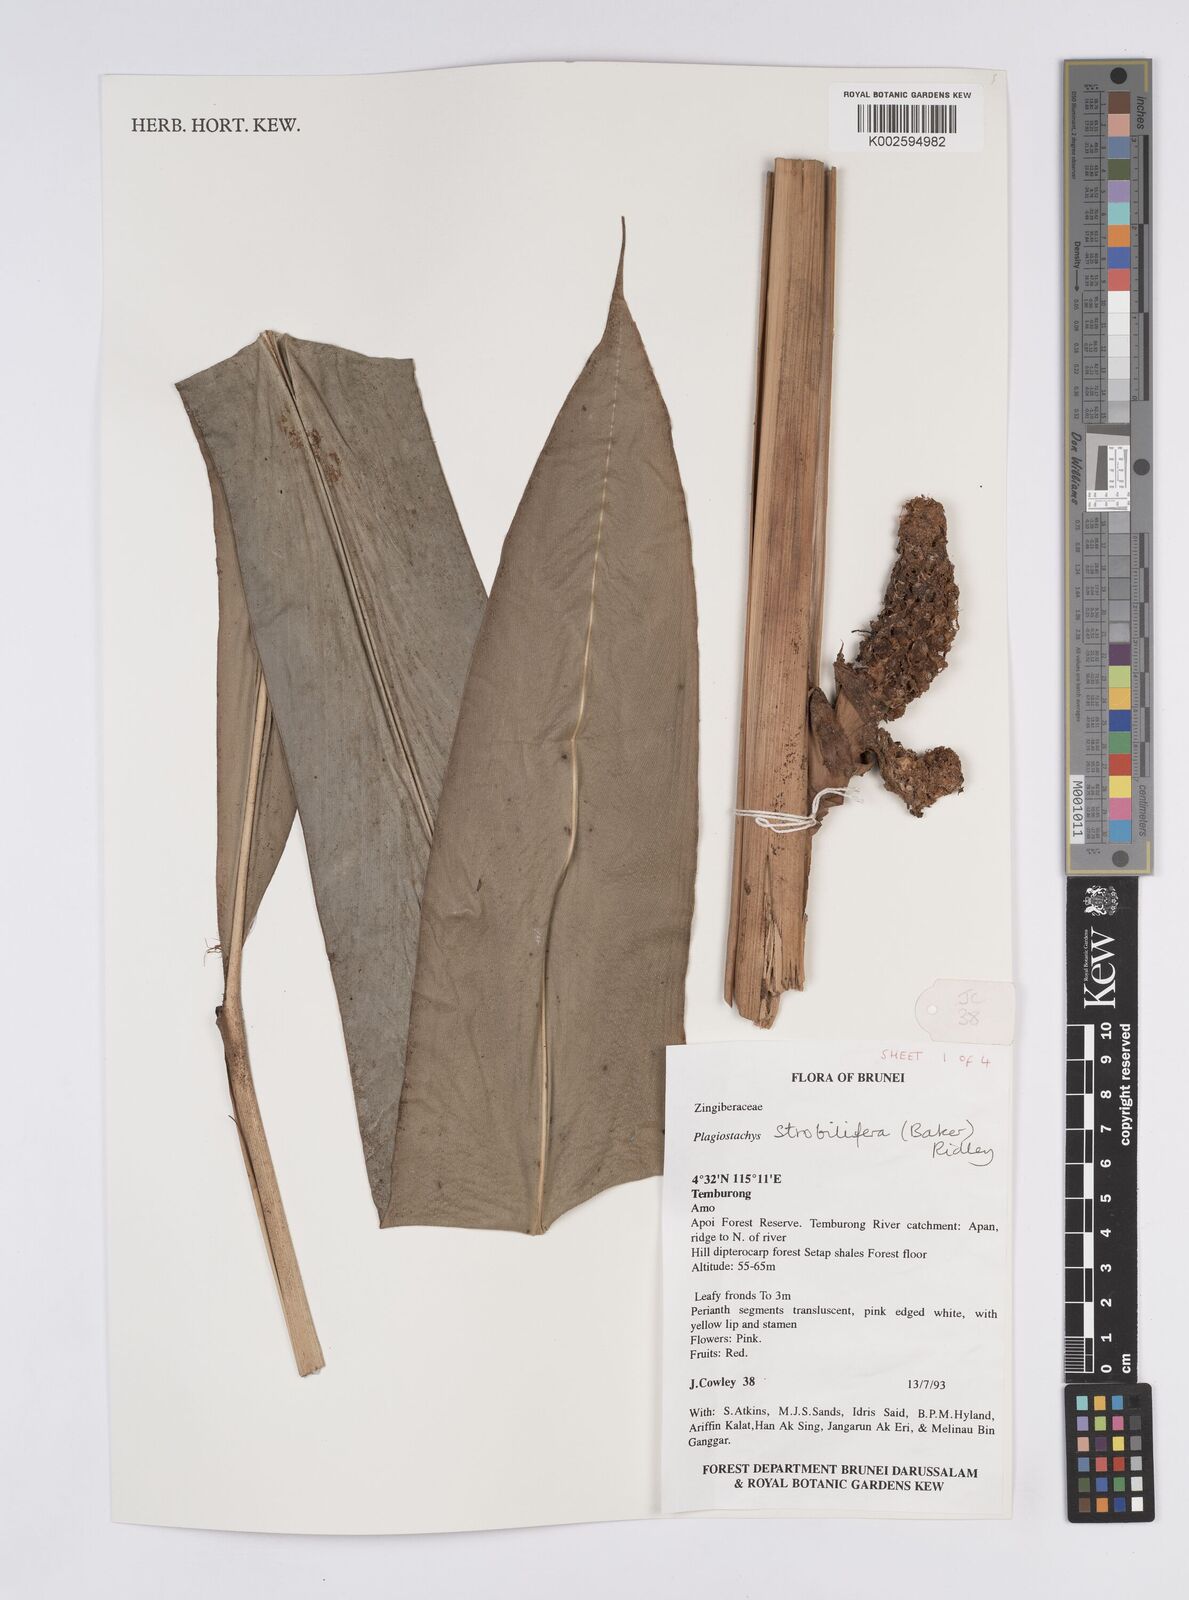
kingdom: Plantae
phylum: Tracheophyta
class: Liliopsida
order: Zingiberales
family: Zingiberaceae
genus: Plagiostachys
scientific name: Plagiostachys strobilifera
